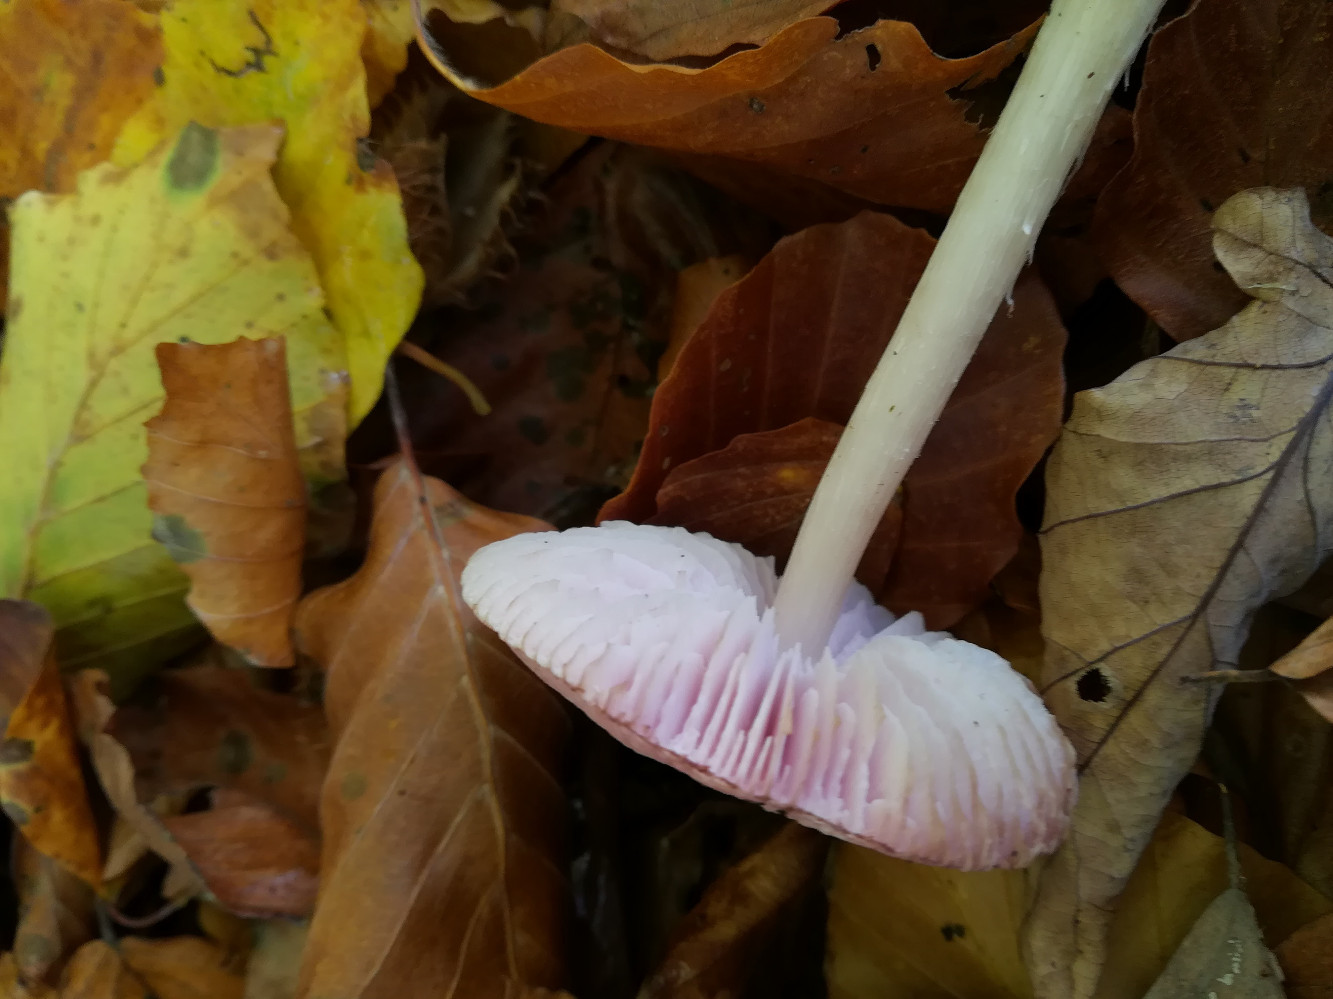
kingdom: Fungi
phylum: Basidiomycota
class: Agaricomycetes
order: Agaricales
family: Mycenaceae
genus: Mycena
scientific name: Mycena rosea
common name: rosa huesvamp
